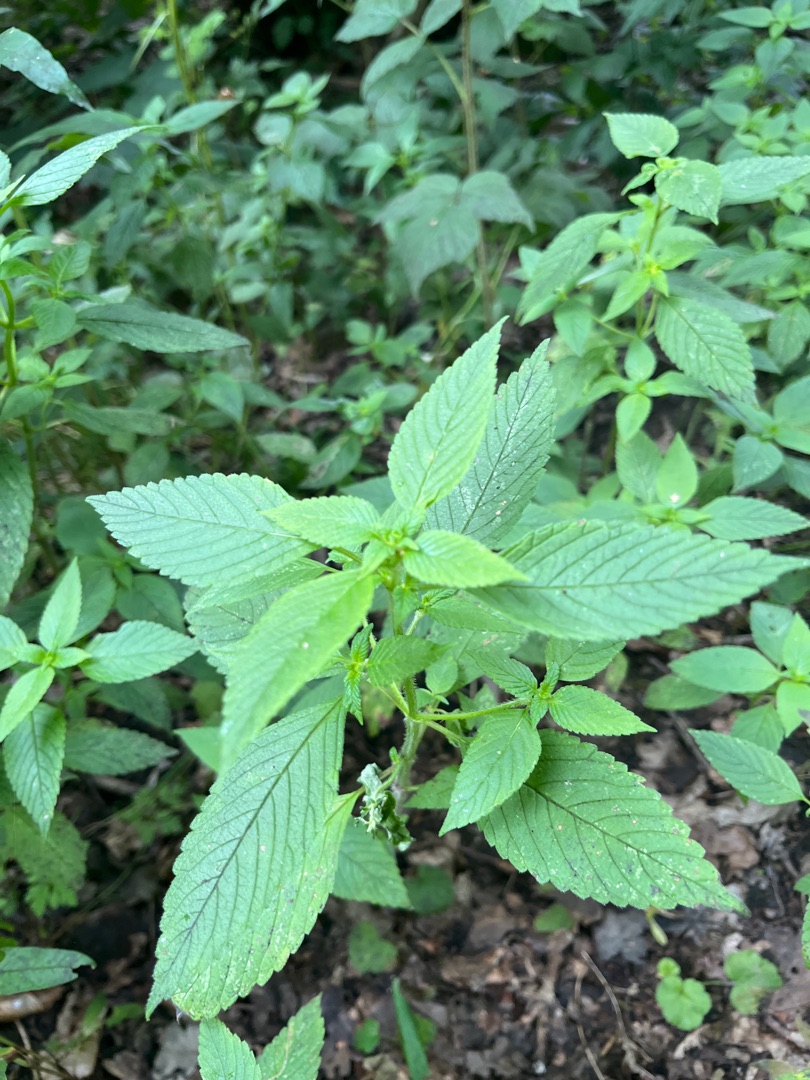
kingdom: Plantae
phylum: Tracheophyta
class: Magnoliopsida
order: Lamiales
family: Lamiaceae
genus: Galeopsis
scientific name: Galeopsis
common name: Hanekroslægten
